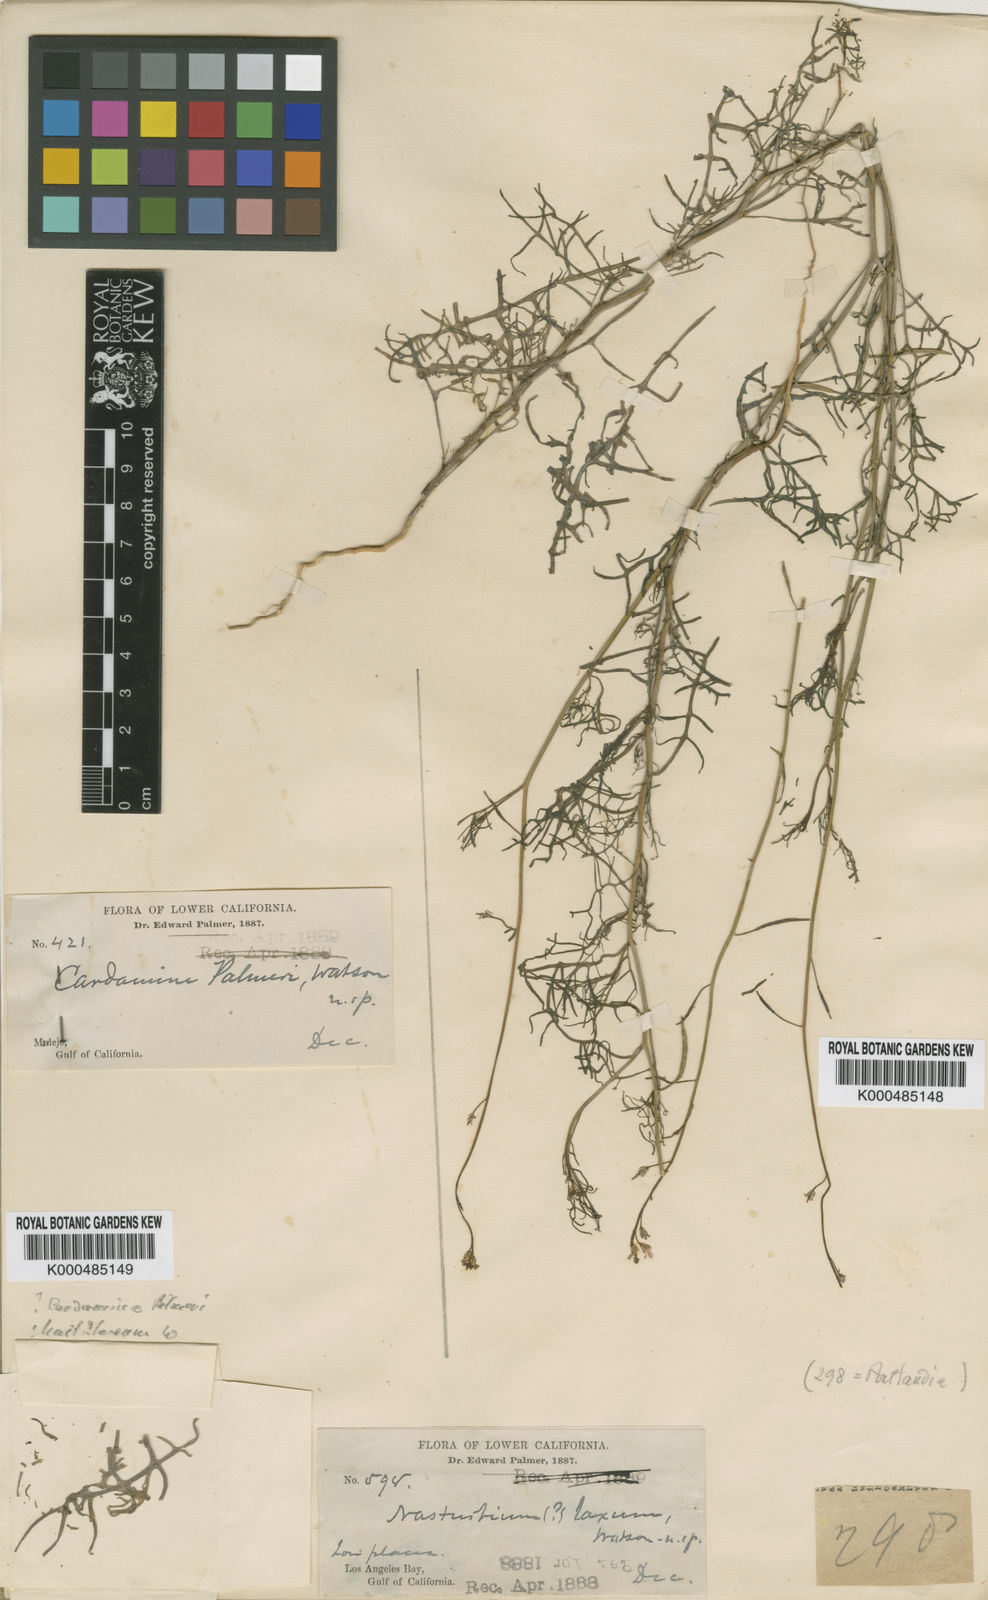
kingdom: Plantae
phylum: Tracheophyta
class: Magnoliopsida
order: Brassicales
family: Brassicaceae
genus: Sibara
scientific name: Sibara angelorum
